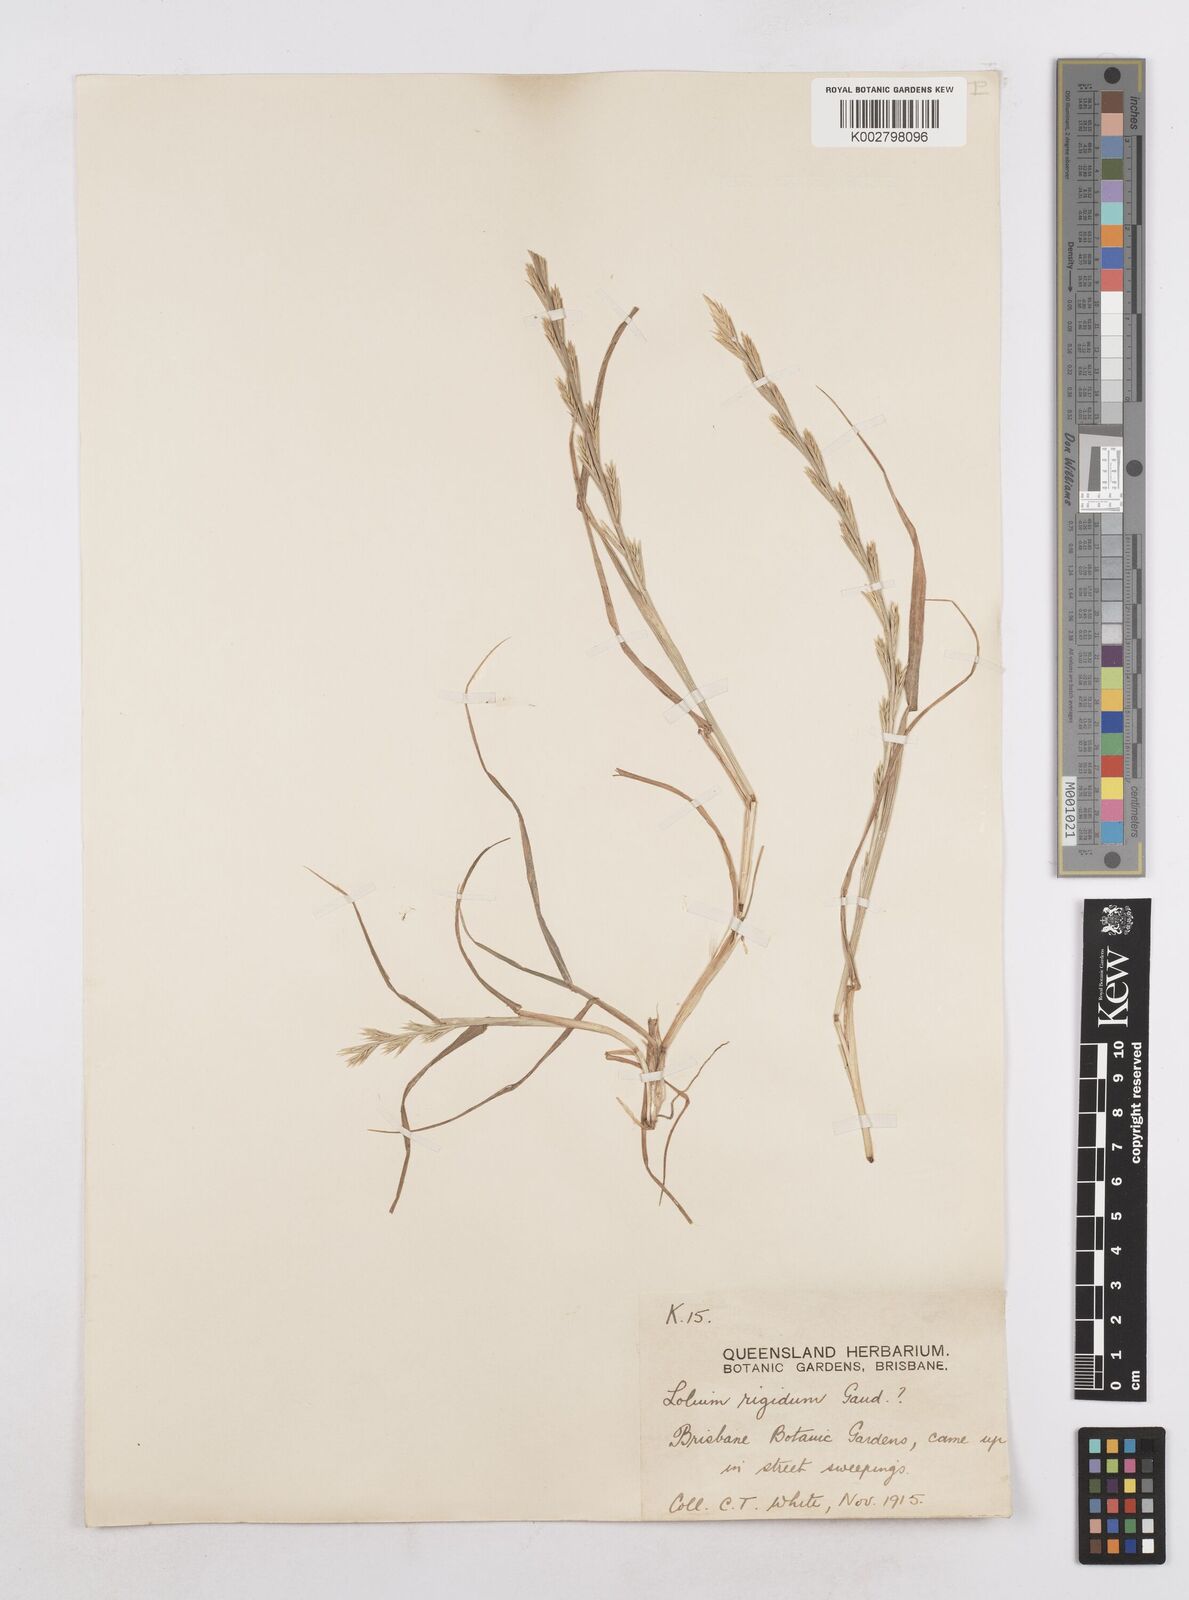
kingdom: Plantae
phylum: Tracheophyta
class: Liliopsida
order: Poales
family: Poaceae
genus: Lolium
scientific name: Lolium
